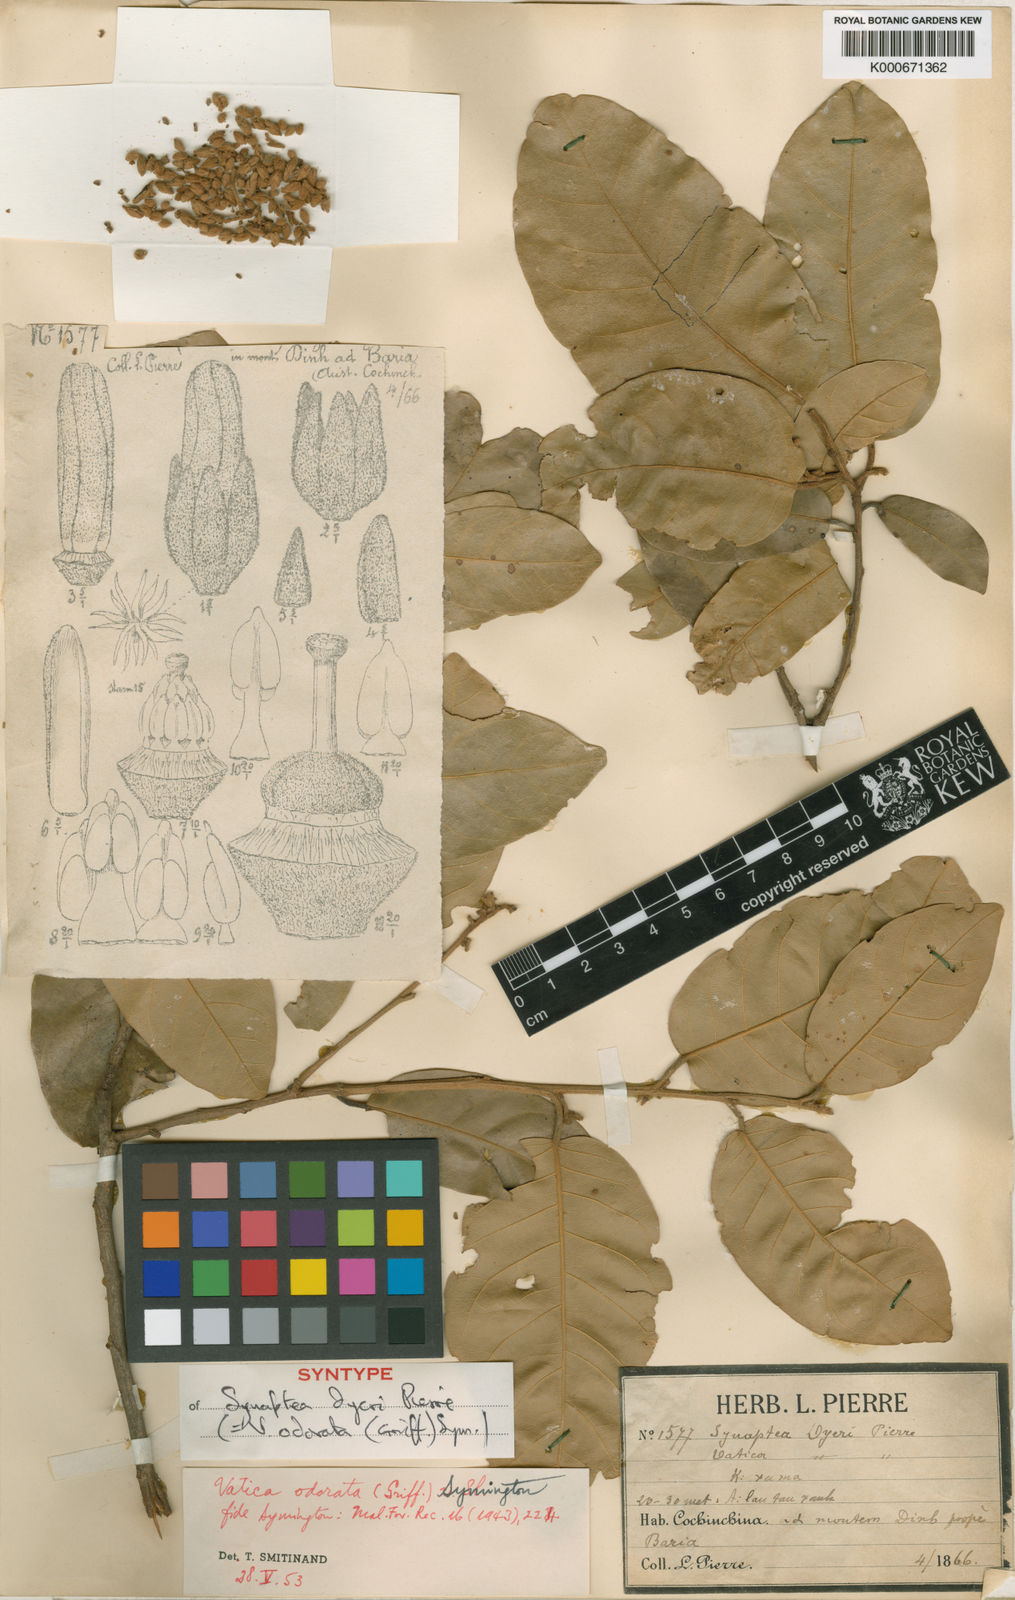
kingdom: Plantae
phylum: Tracheophyta
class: Magnoliopsida
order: Malvales
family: Dipterocarpaceae
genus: Vatica
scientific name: Vatica odorata
